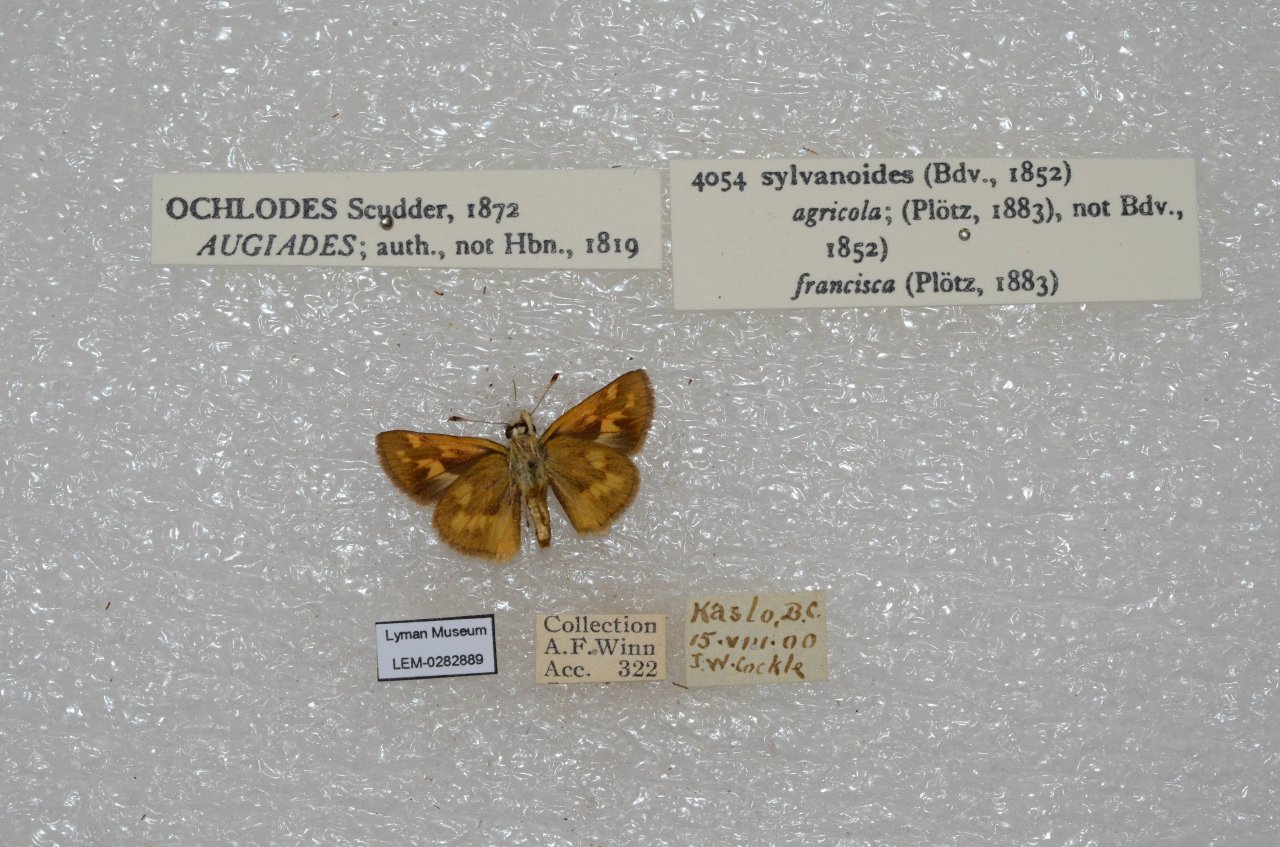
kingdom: Animalia
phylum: Arthropoda
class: Insecta
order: Lepidoptera
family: Hesperiidae
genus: Ochlodes
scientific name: Ochlodes sylvanoides
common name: Woodland Skipper
